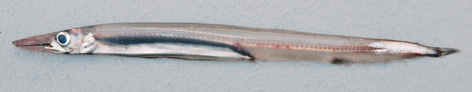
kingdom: Animalia
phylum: Chordata
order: Aulopiformes
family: Paralepididae
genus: Lestrolepis
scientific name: Lestrolepis japonica
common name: Japanese barracudina
